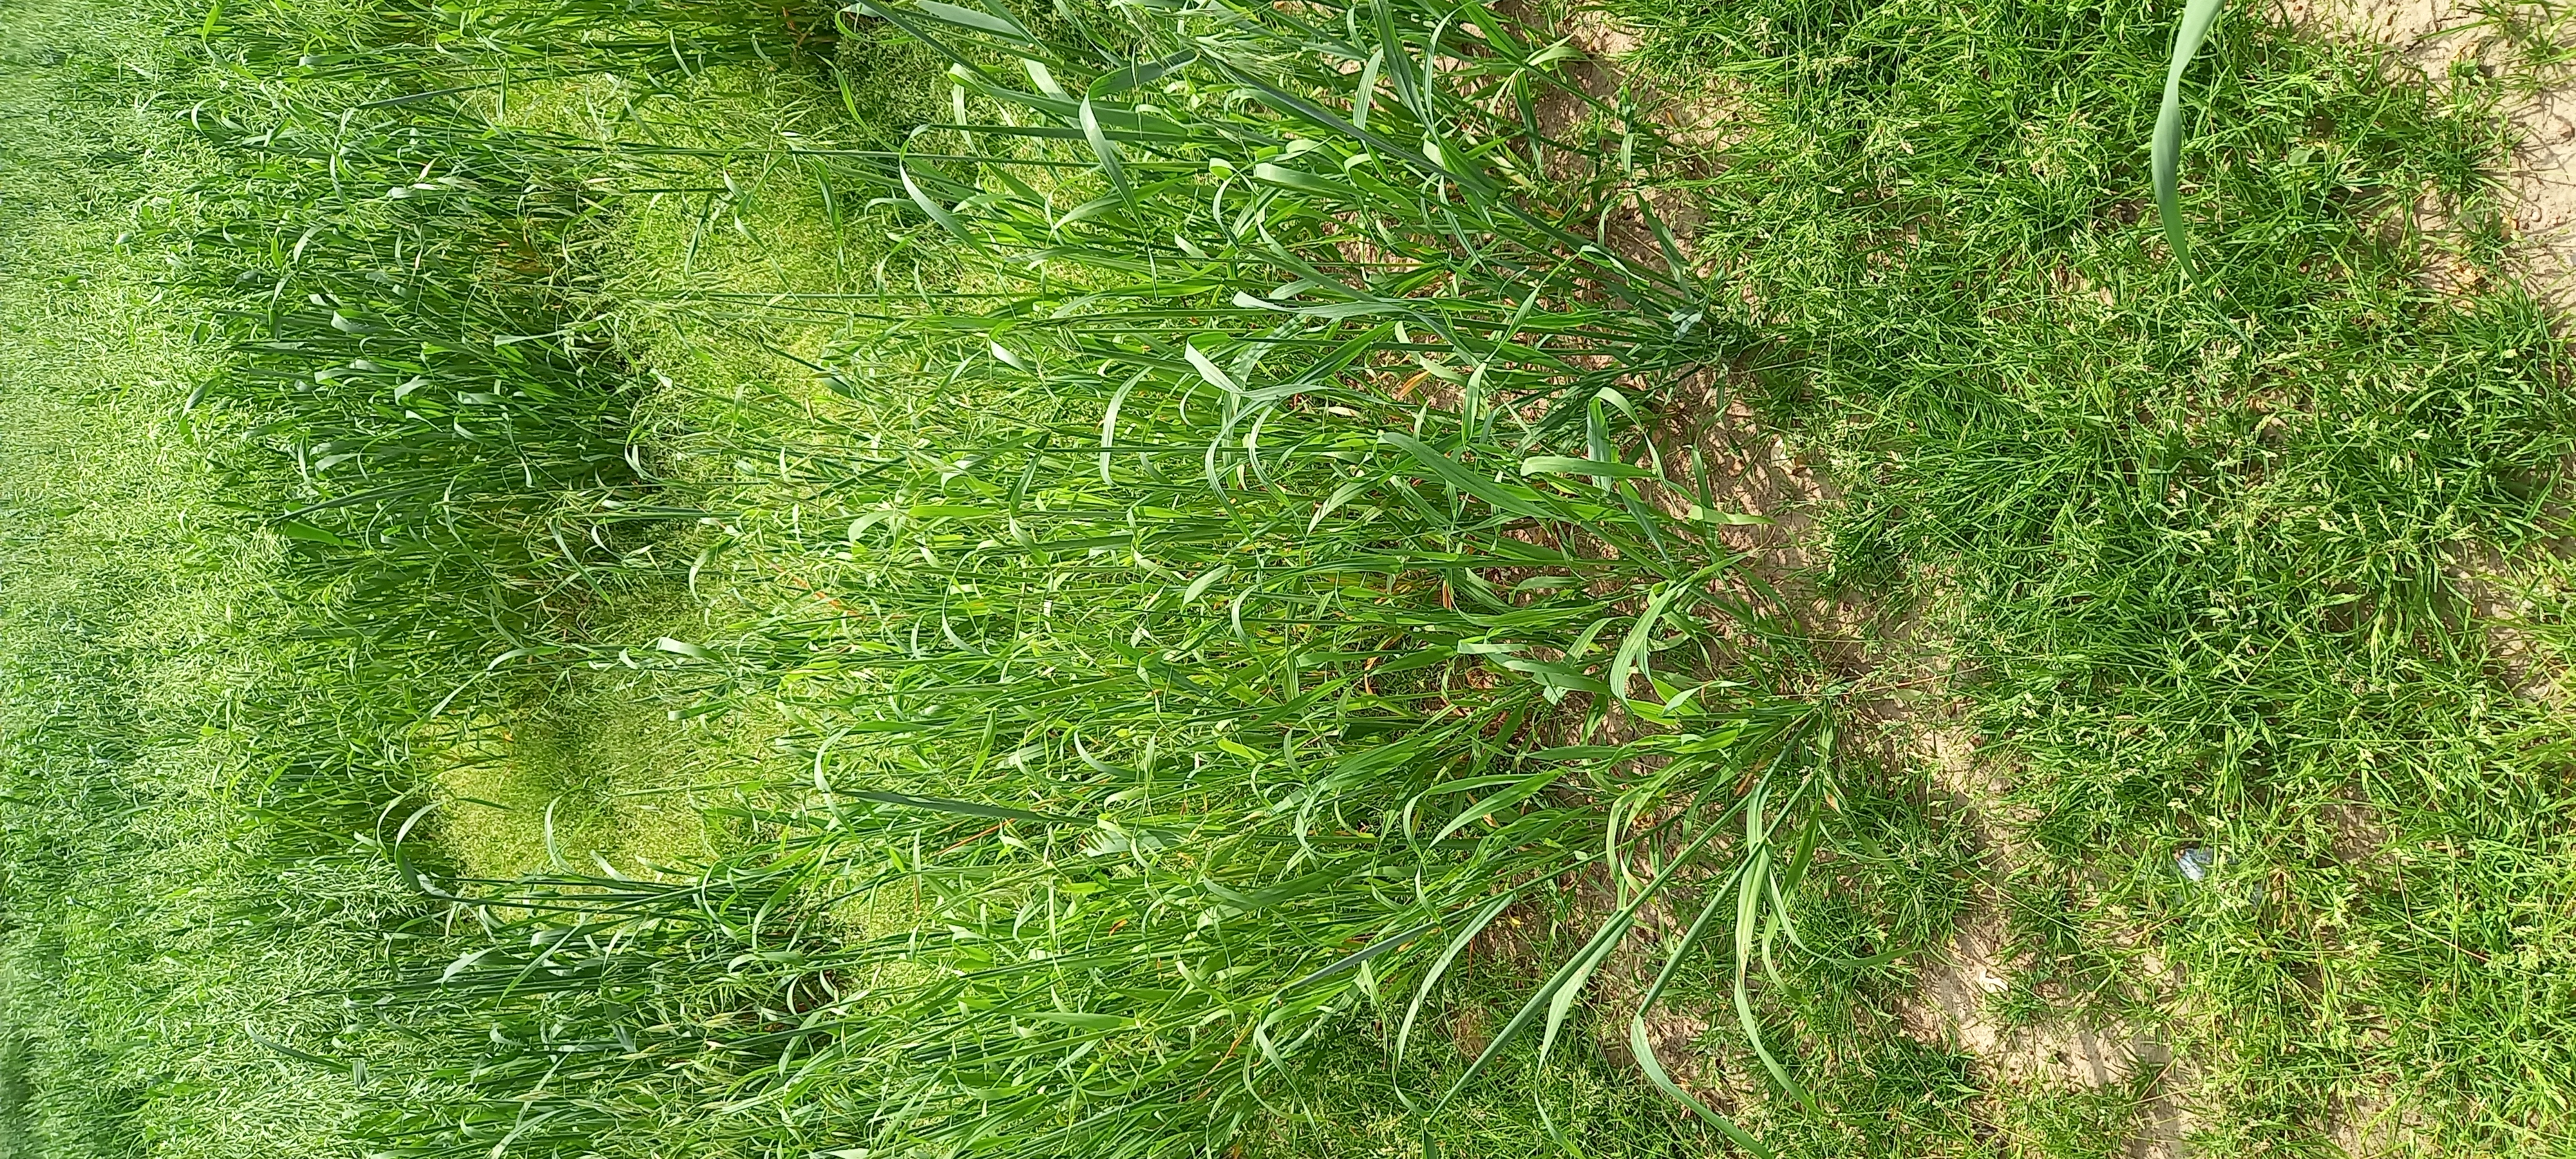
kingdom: Plantae
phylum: Tracheophyta
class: Liliopsida
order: Poales
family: Poaceae
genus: Avena
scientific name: Avena sativa
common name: Oat
